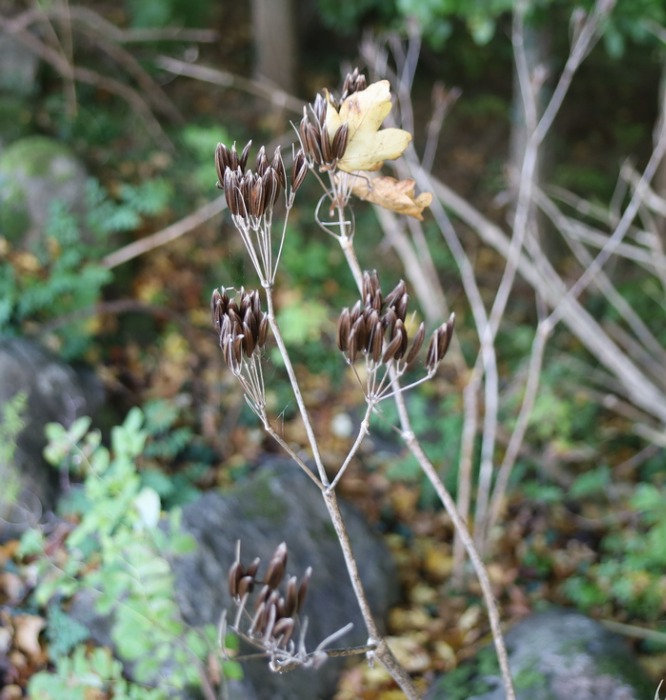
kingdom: Plantae
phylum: Tracheophyta
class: Magnoliopsida
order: Apiales
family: Apiaceae
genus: Myrrhis
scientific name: Myrrhis odorata
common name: Sødskærm
